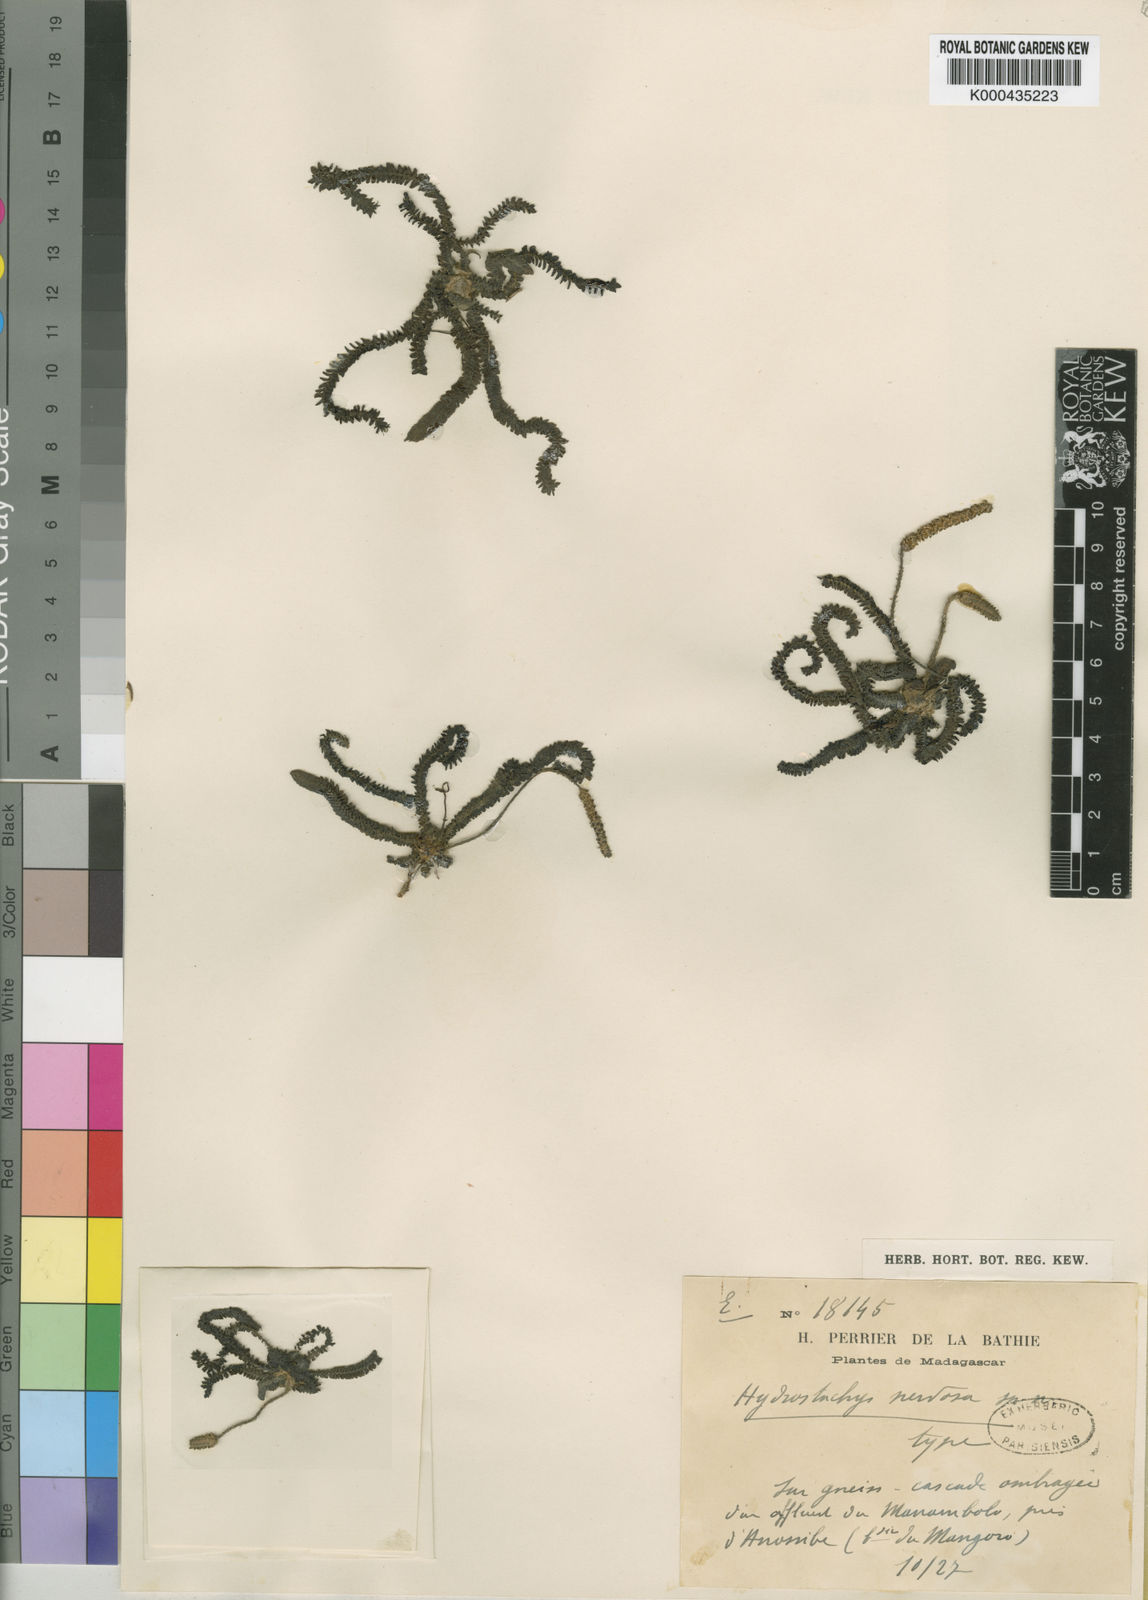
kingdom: Plantae
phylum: Tracheophyta
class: Magnoliopsida
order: Cornales
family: Hydrostachyaceae
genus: Hydrostachys
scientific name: Hydrostachys distichophylla
